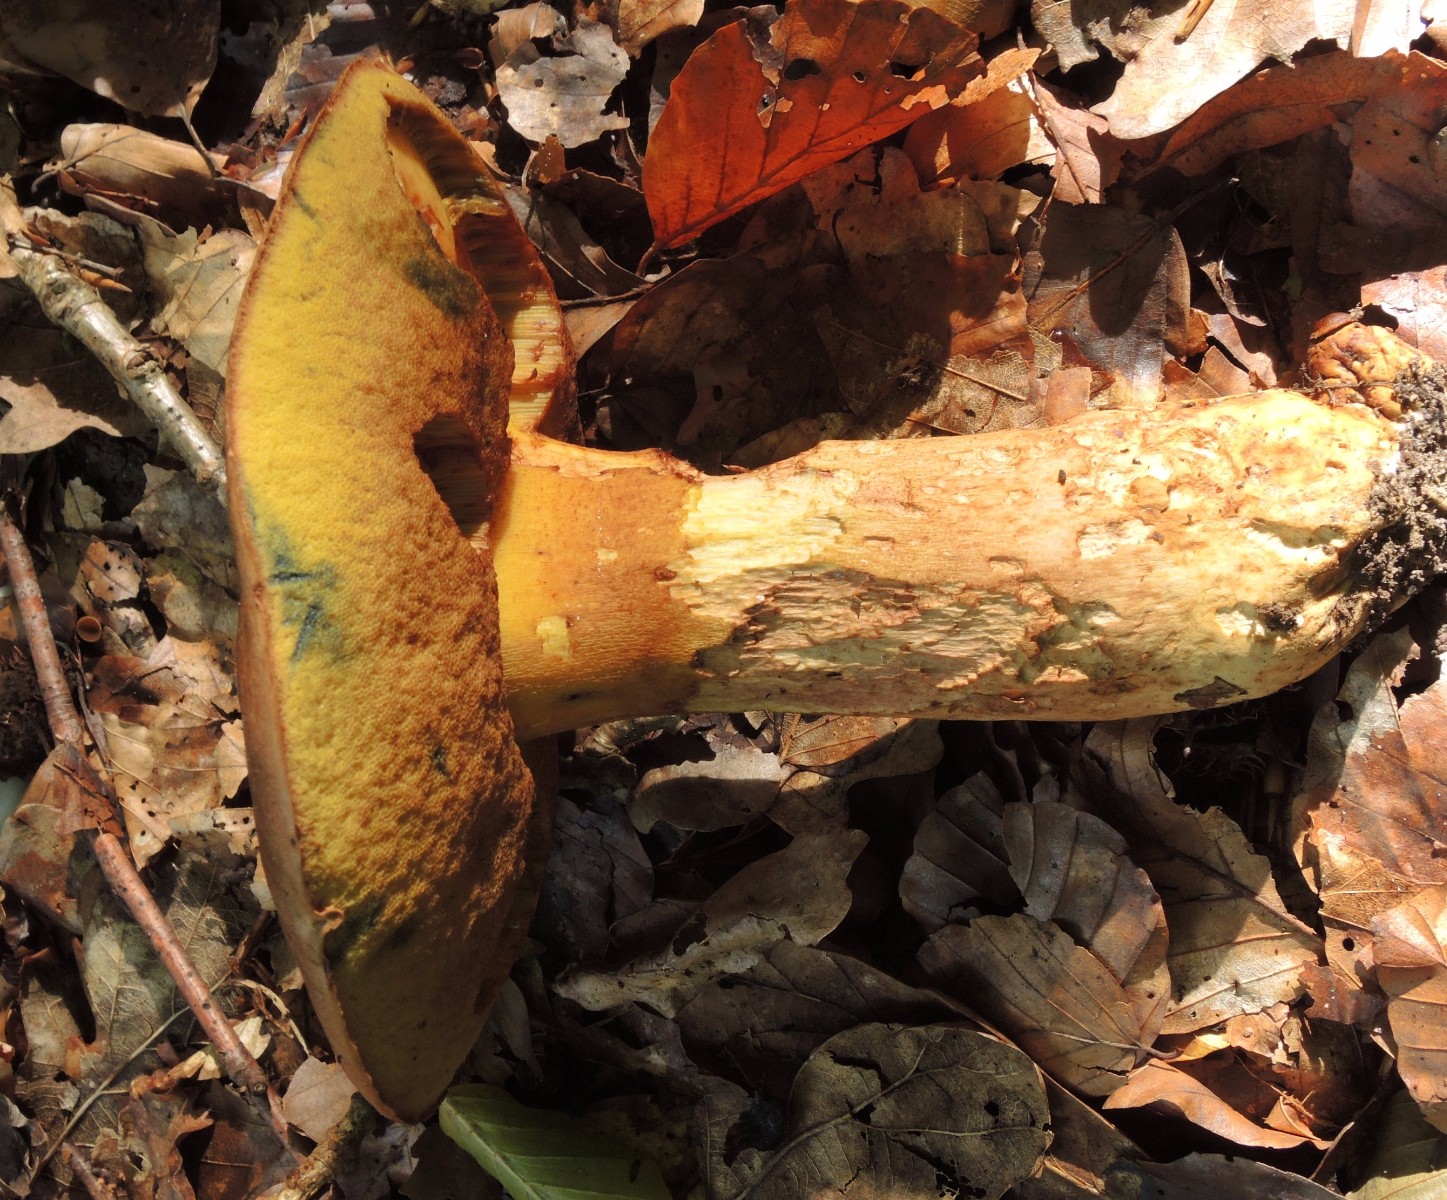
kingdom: Fungi
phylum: Basidiomycota
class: Agaricomycetes
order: Boletales
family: Boletaceae
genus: Butyriboletus
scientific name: Butyriboletus appendiculatus
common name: tenstokket rørhat
